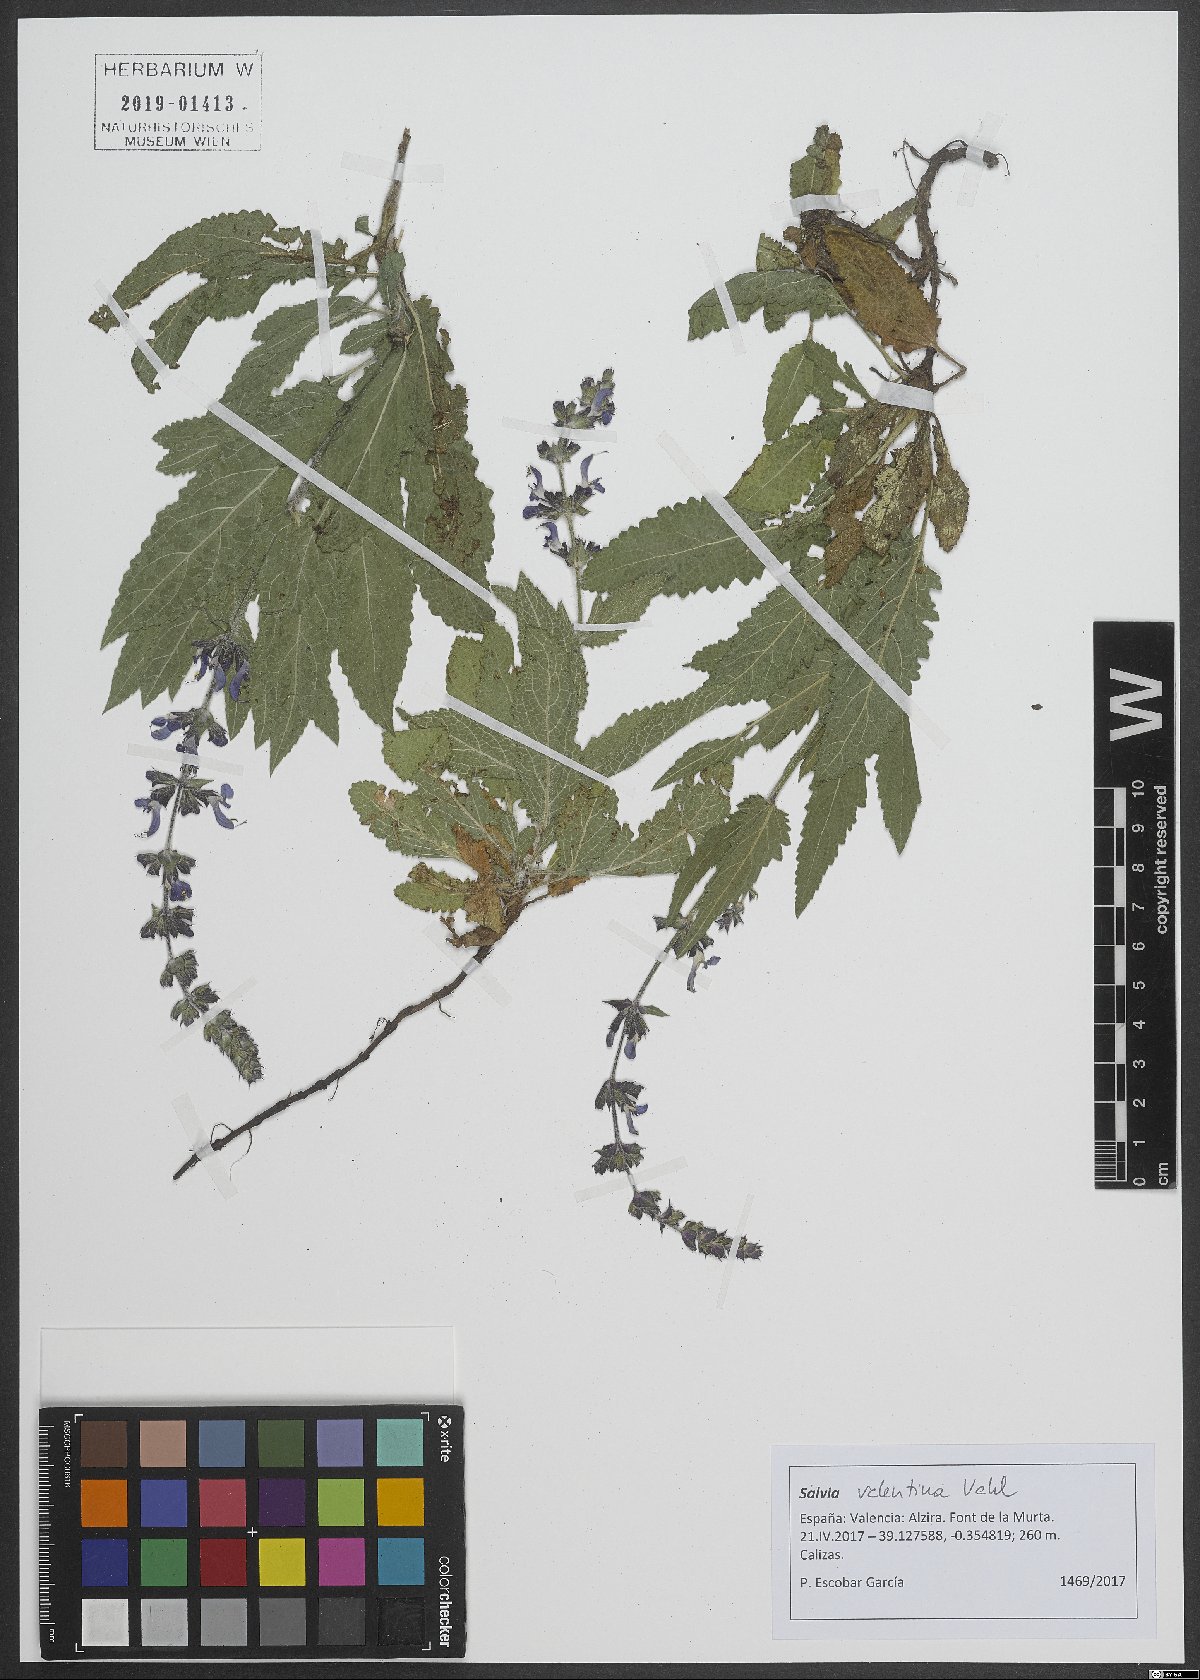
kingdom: Plantae
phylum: Tracheophyta
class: Magnoliopsida
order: Lamiales
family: Lamiaceae
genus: Salvia
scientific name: Salvia valentina
